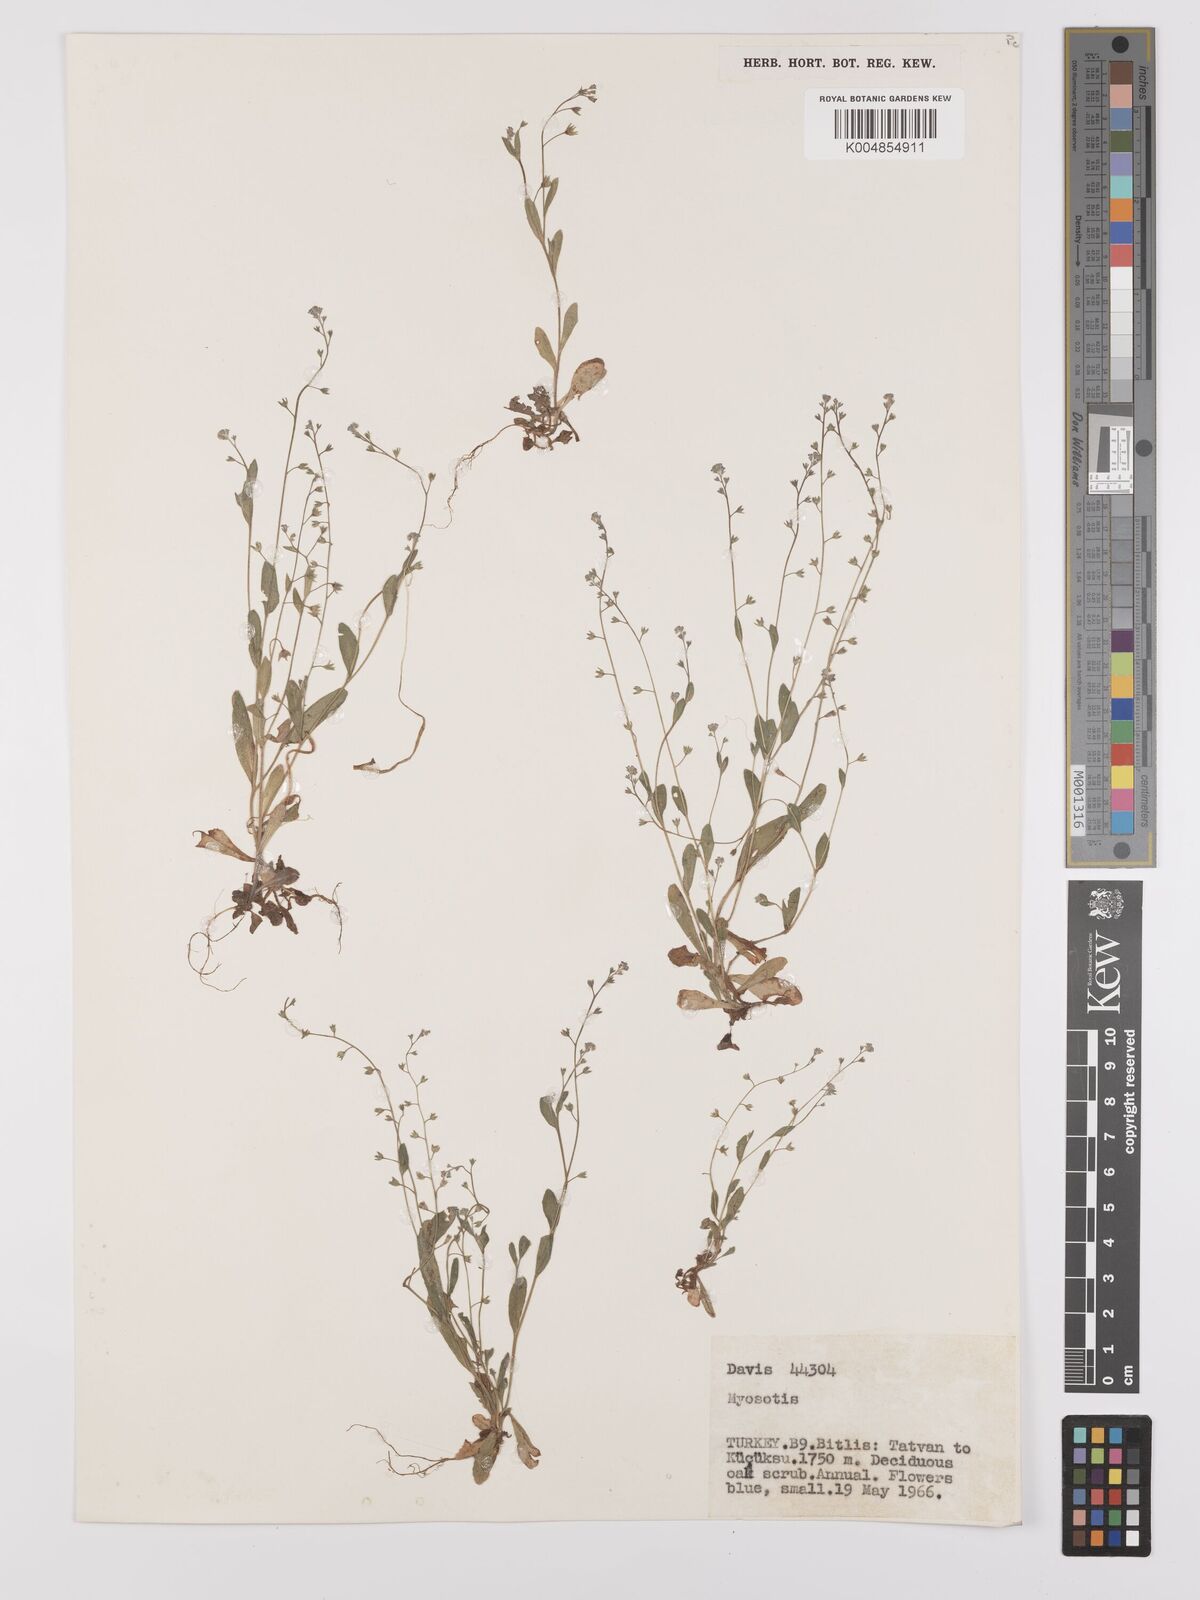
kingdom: Plantae
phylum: Tracheophyta
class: Magnoliopsida
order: Boraginales
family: Boraginaceae
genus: Myosotis
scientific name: Myosotis
